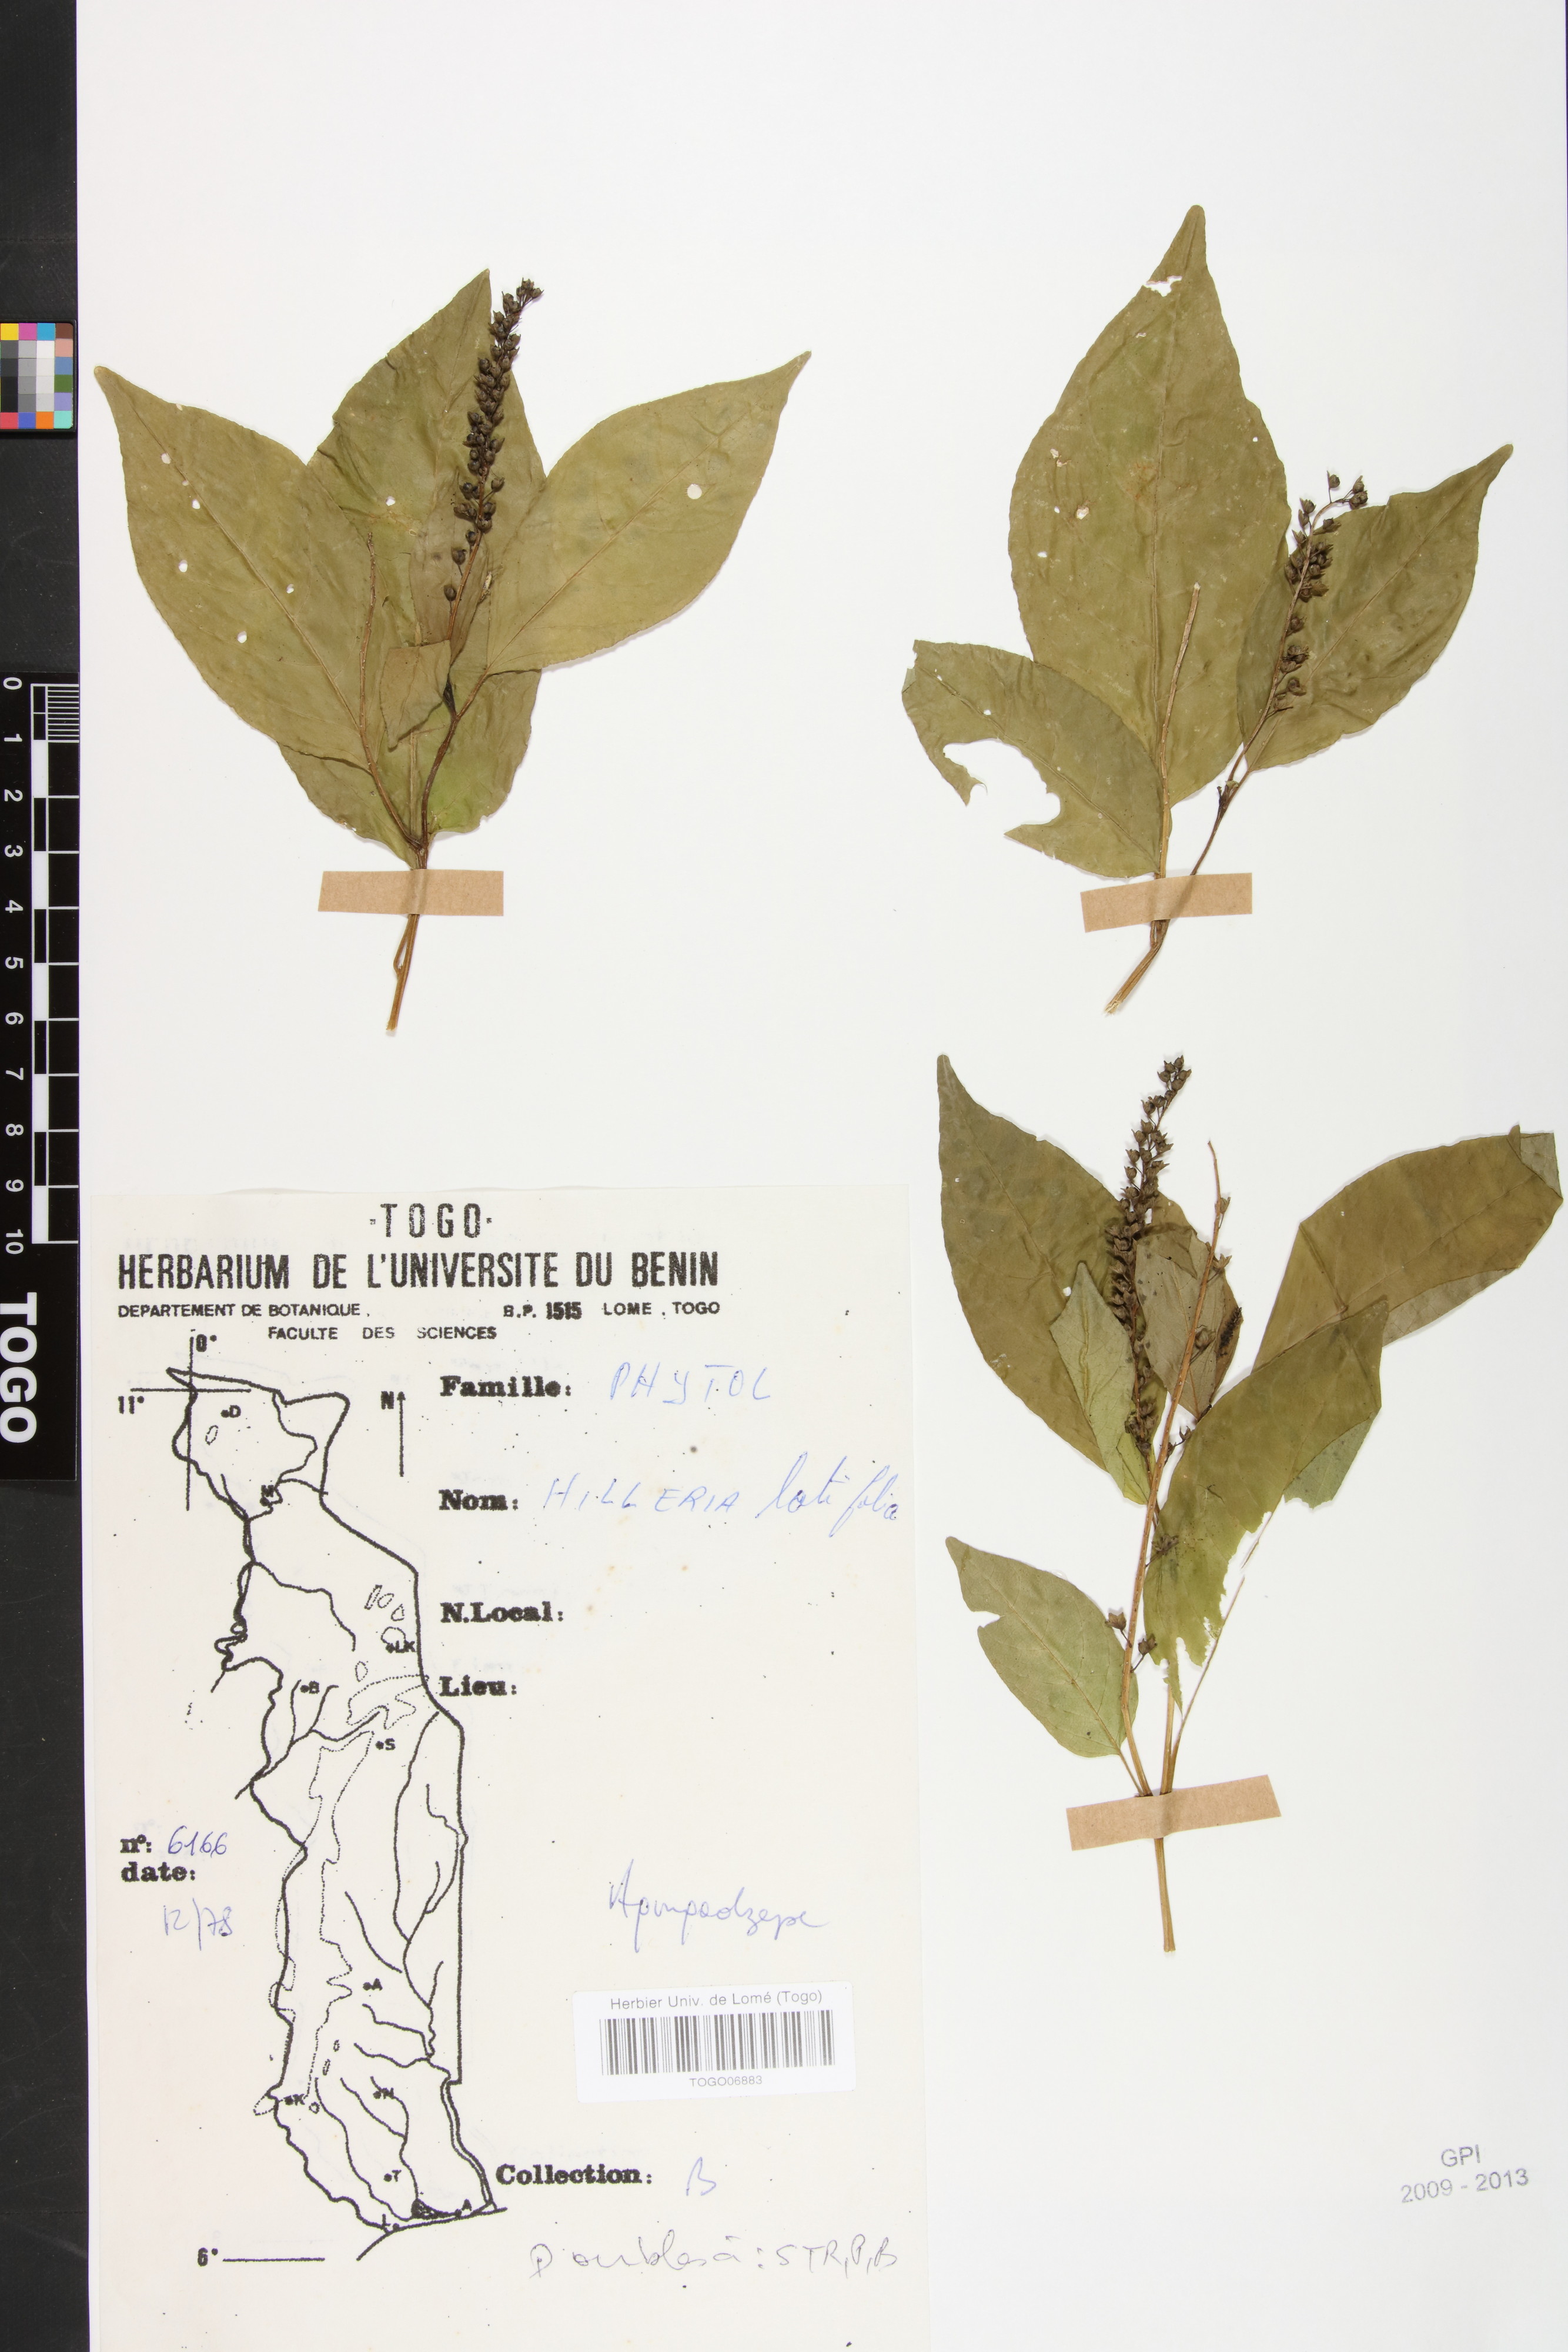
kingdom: Plantae
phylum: Tracheophyta
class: Magnoliopsida
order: Caryophyllales
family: Phytolaccaceae
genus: Hilleria
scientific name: Hilleria latifolia
